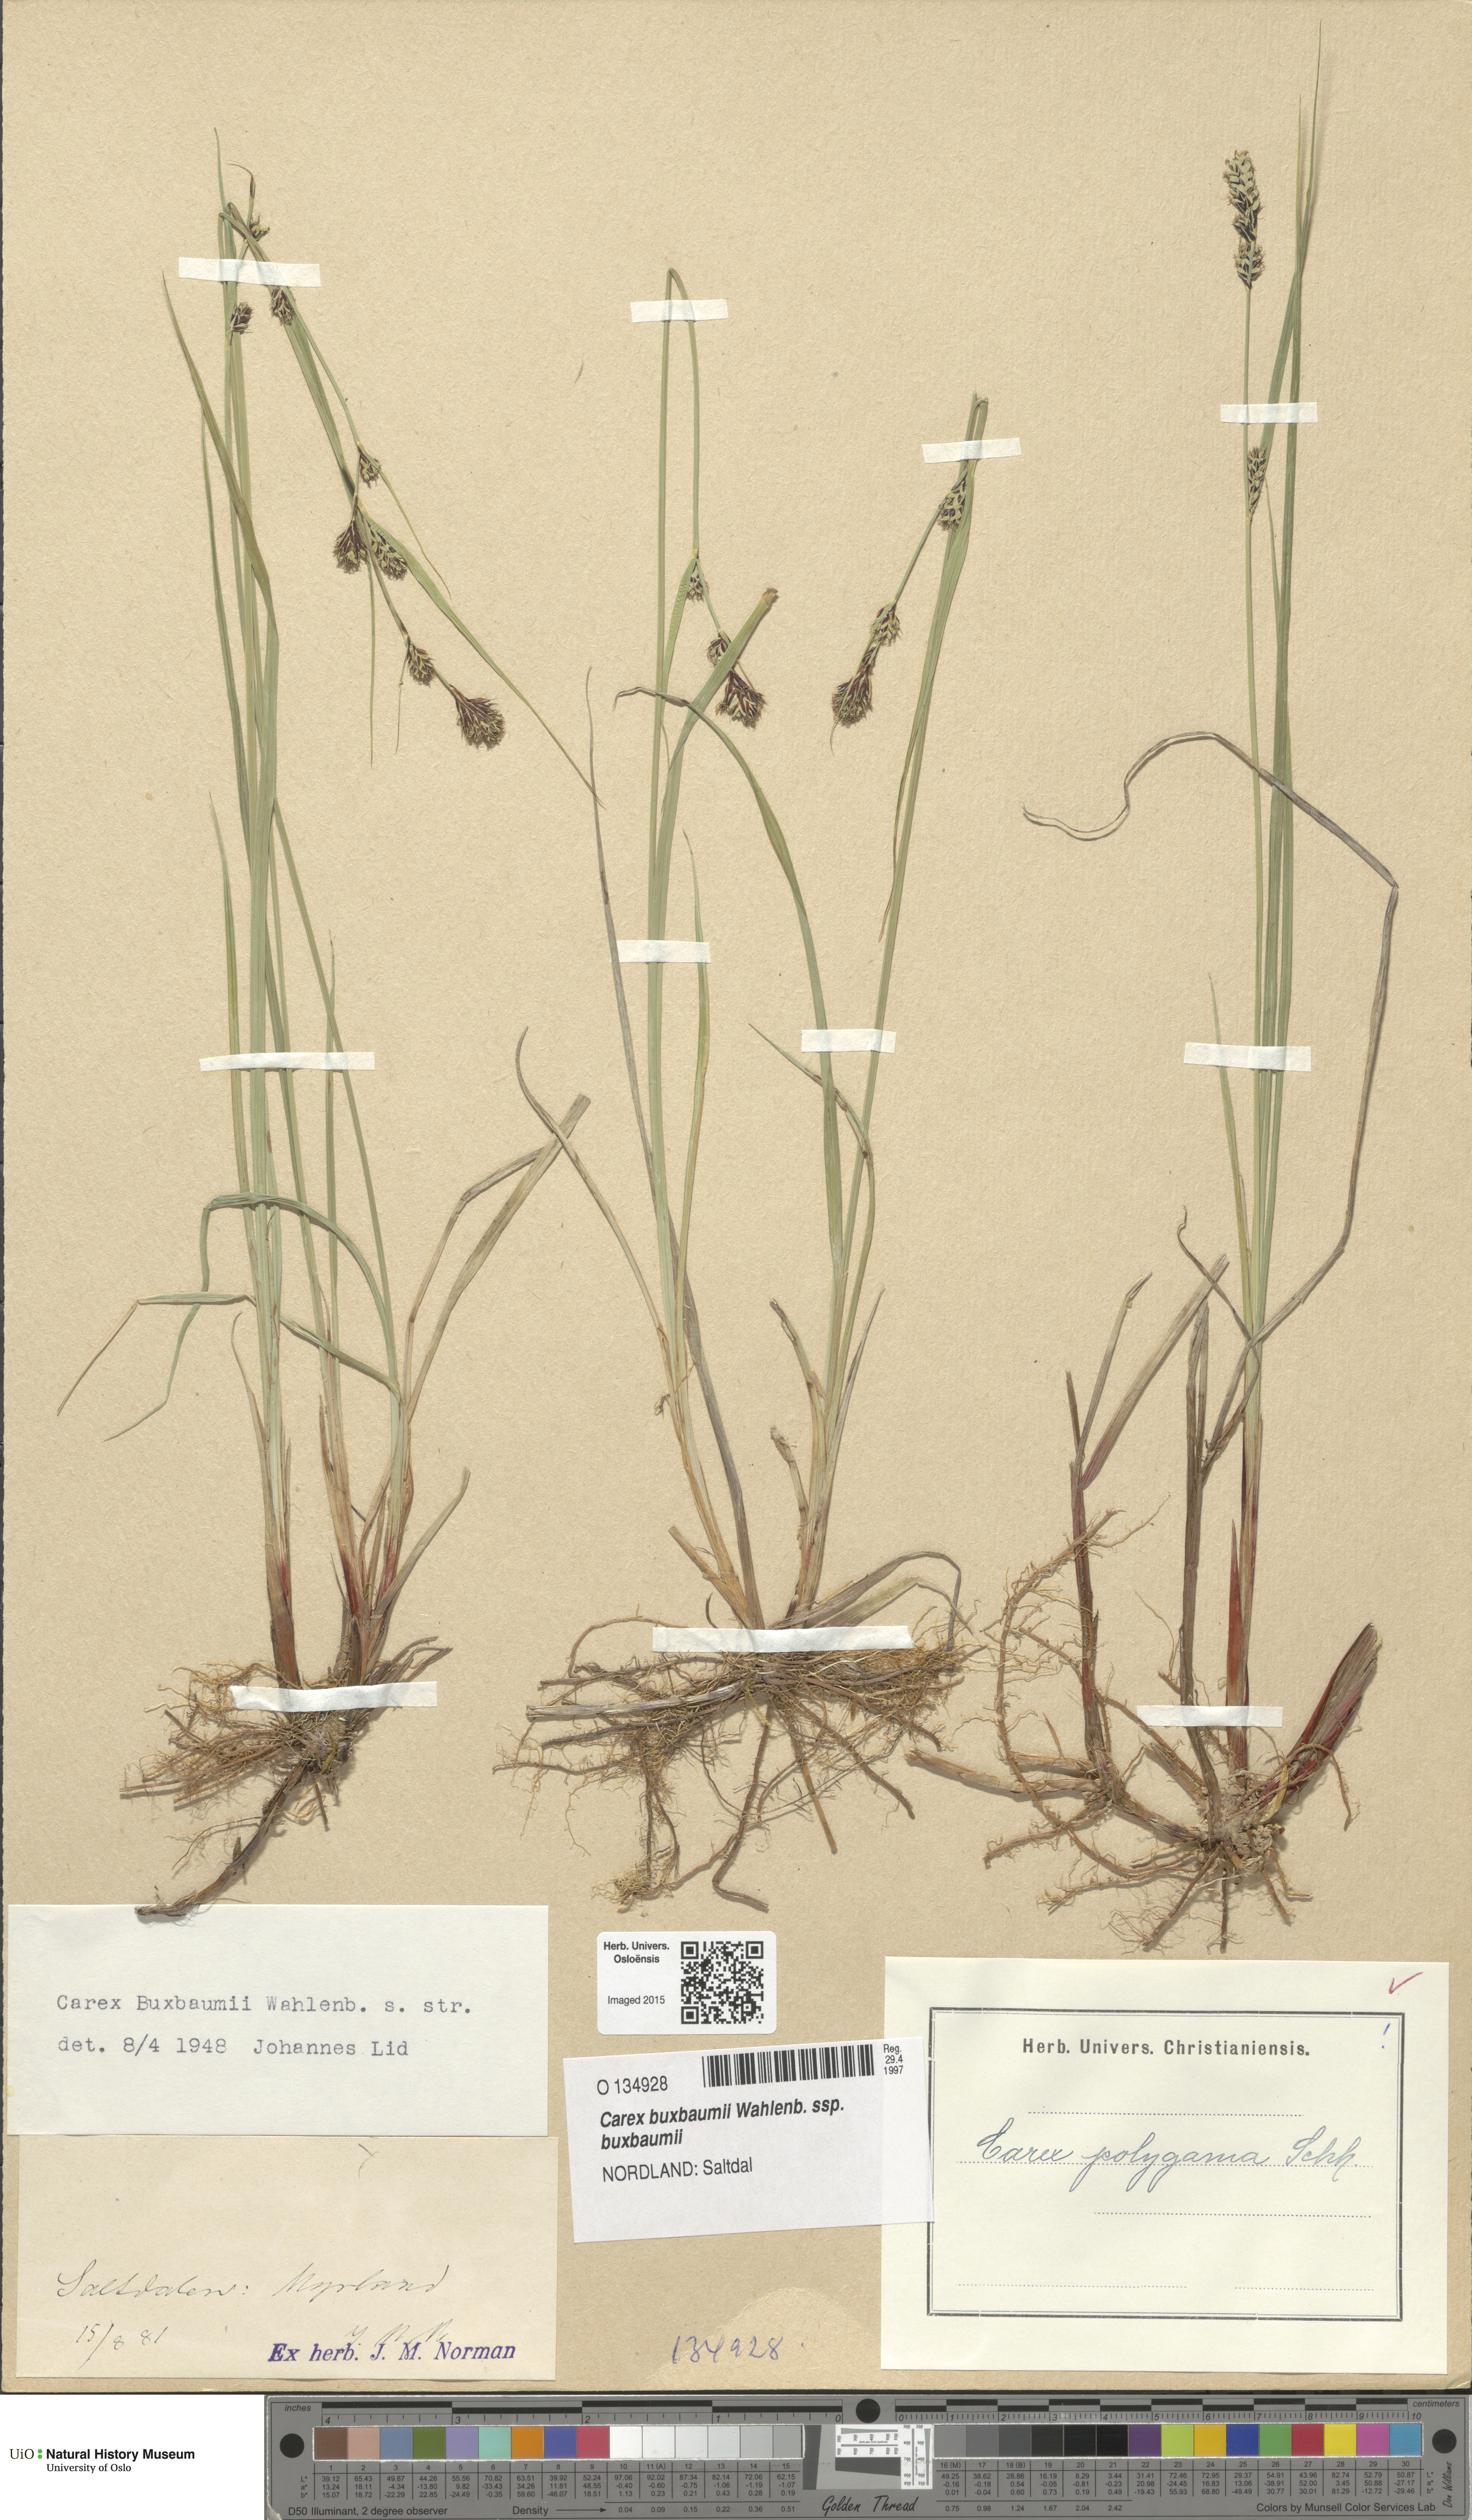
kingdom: Plantae
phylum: Tracheophyta
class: Liliopsida
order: Poales
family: Cyperaceae
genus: Carex
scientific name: Carex buxbaumii
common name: Club sedge
